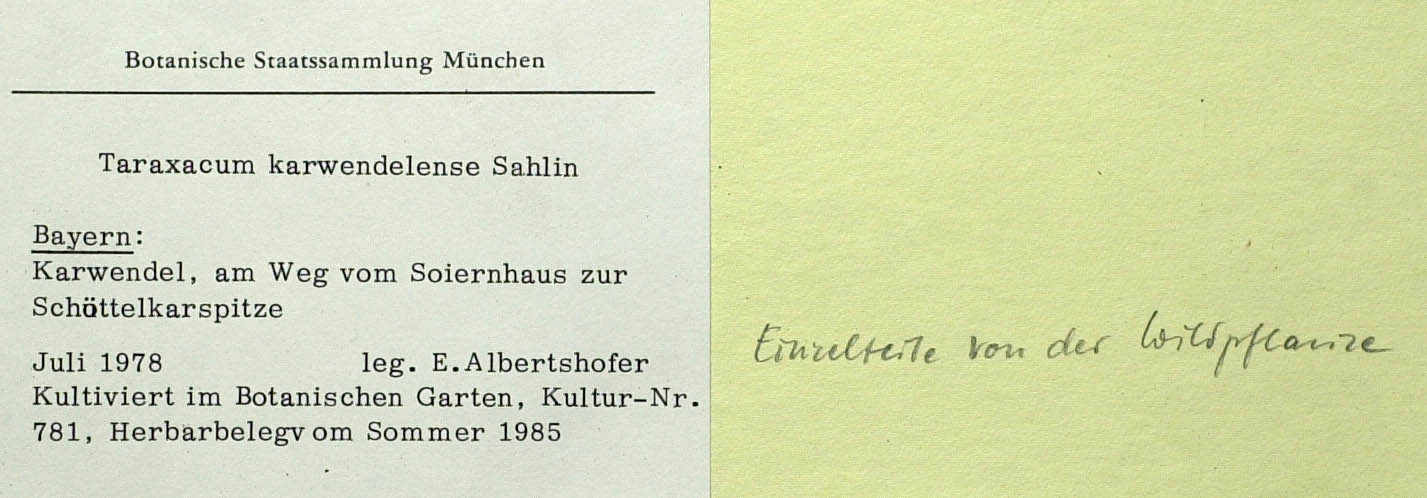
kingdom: Plantae
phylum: Tracheophyta
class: Magnoliopsida
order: Asterales
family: Asteraceae
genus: Taraxacum
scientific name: Taraxacum karwendelense
